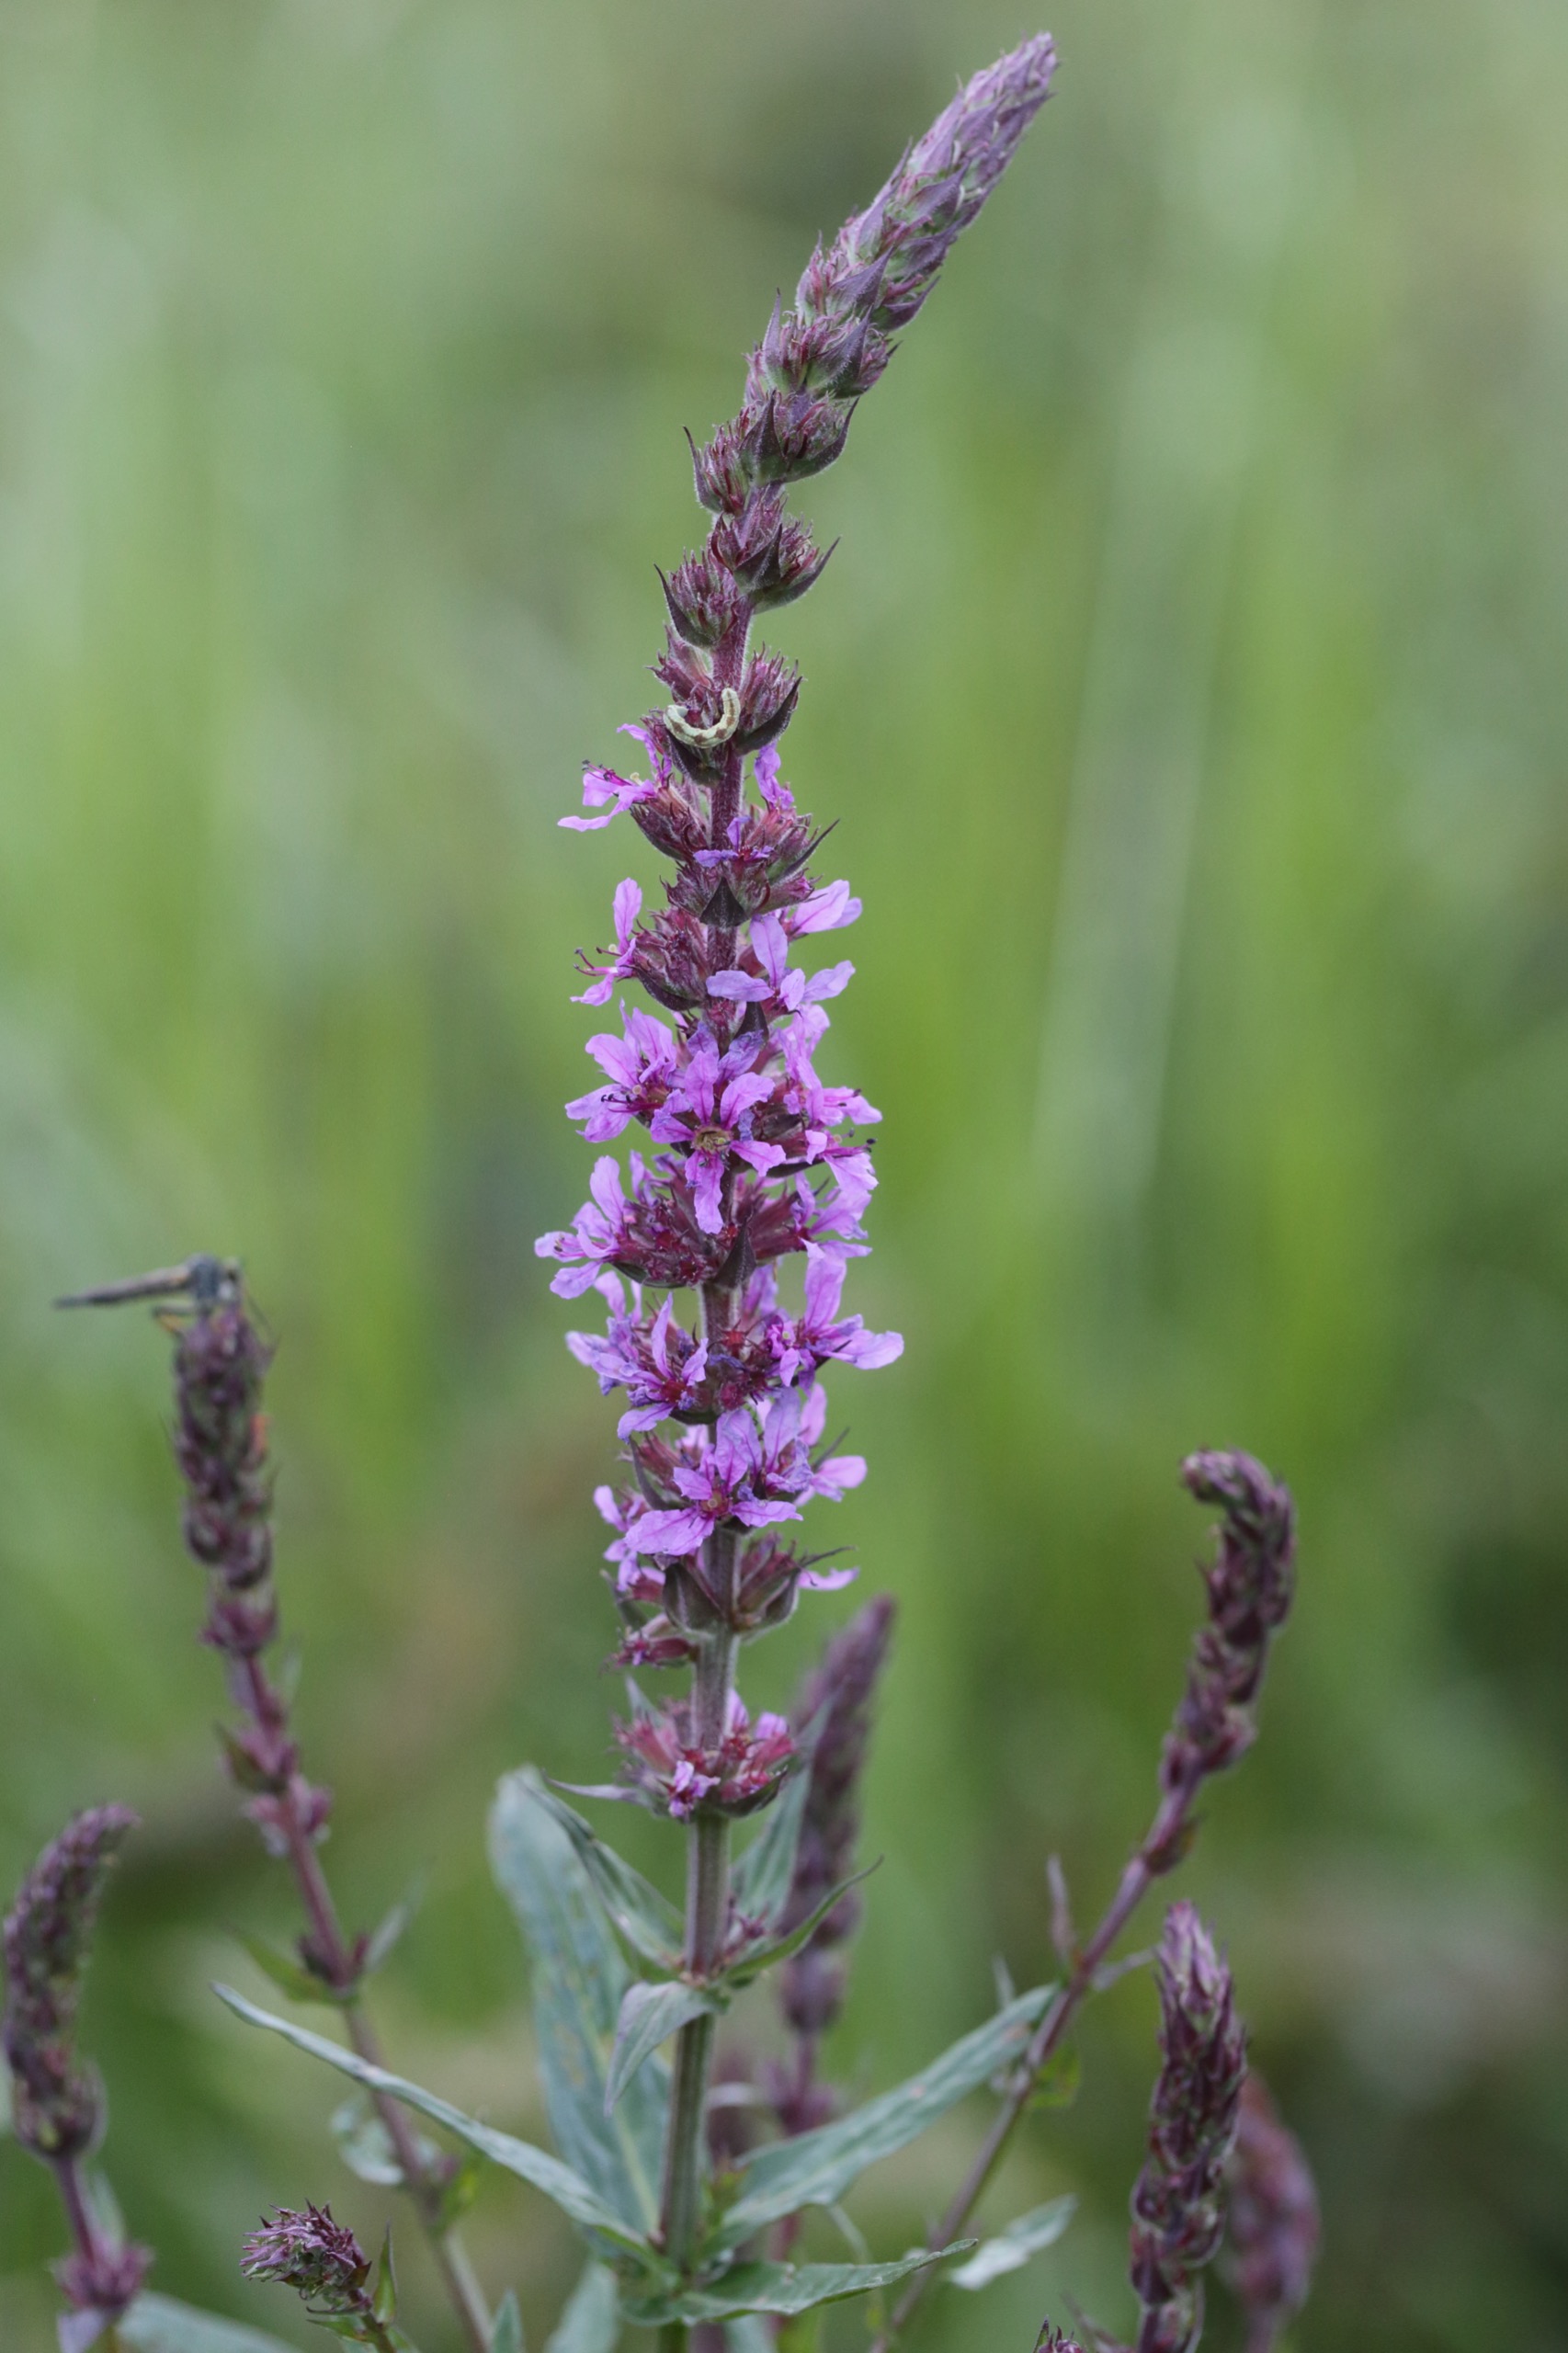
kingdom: Plantae
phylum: Tracheophyta
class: Magnoliopsida
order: Myrtales
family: Lythraceae
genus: Lythrum
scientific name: Lythrum salicaria
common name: Kattehale
